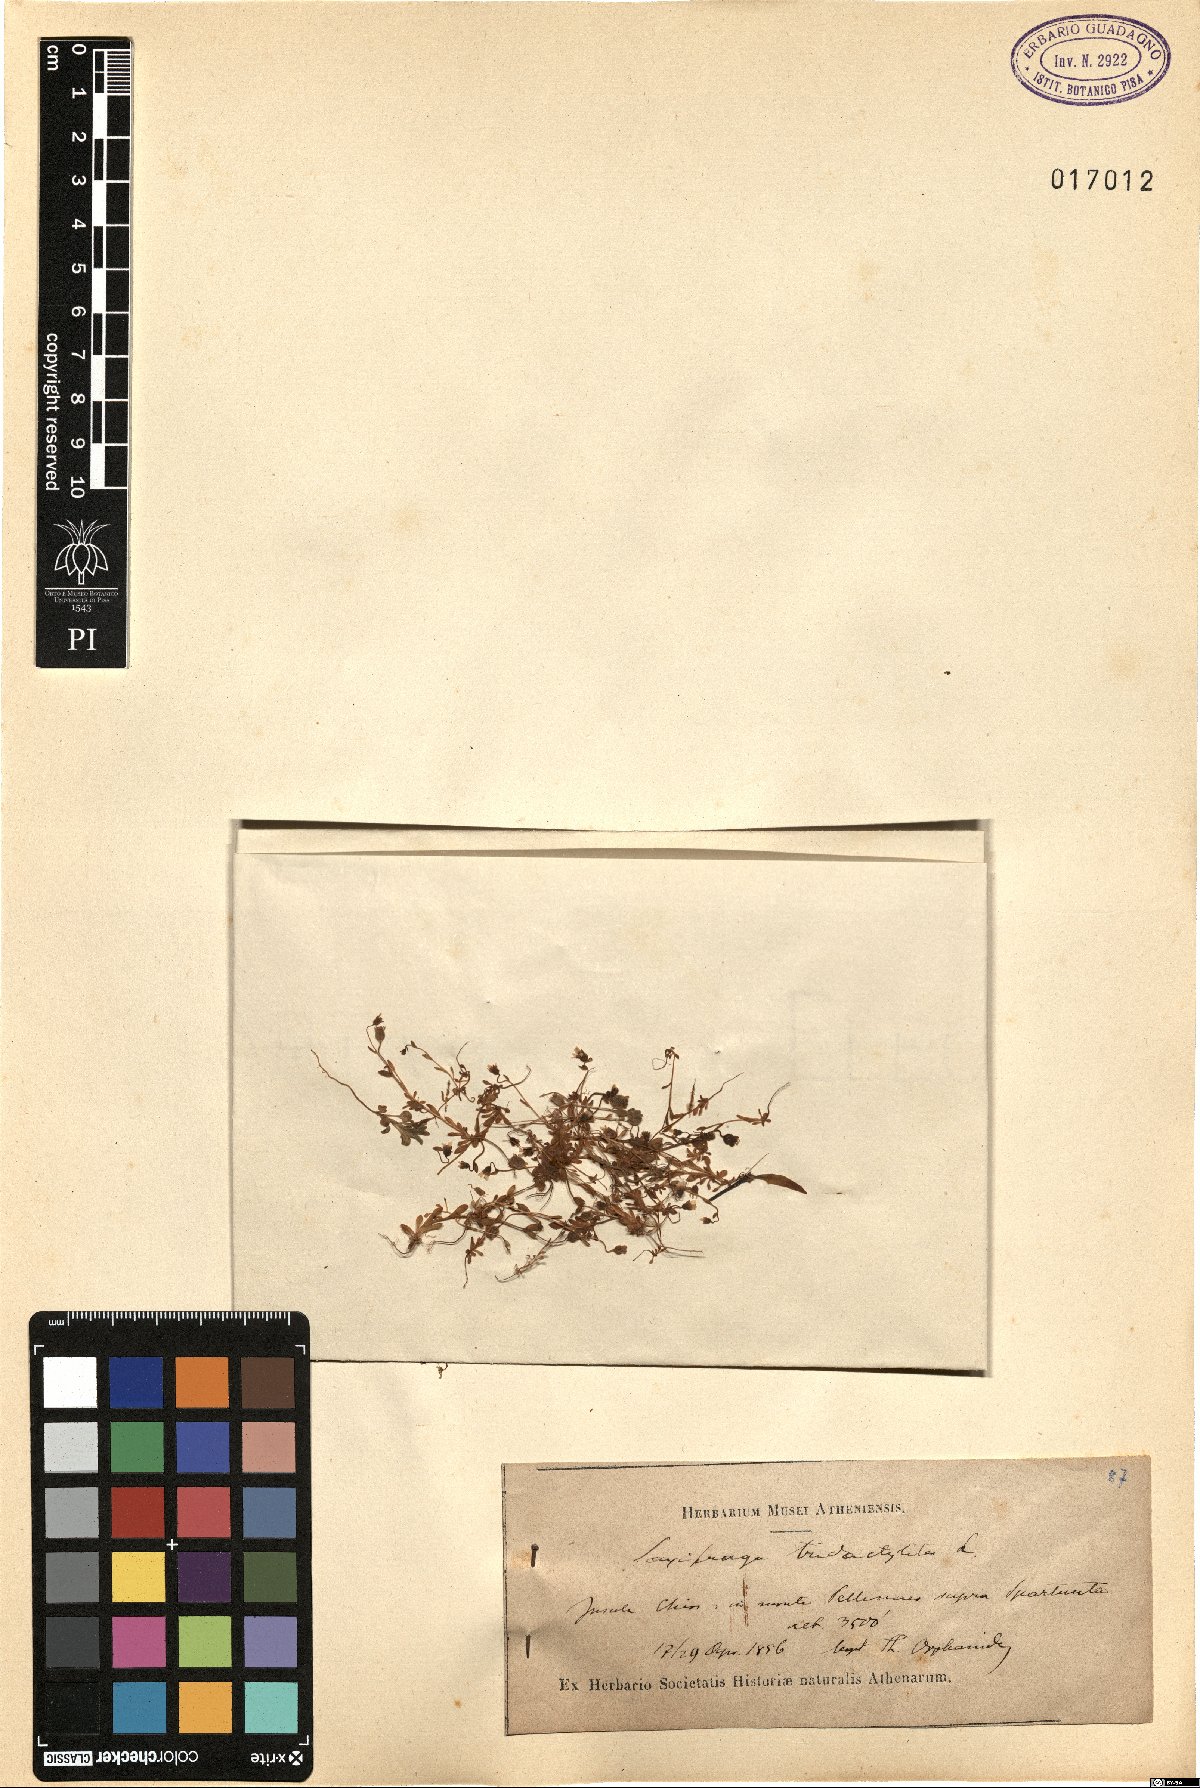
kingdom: Plantae
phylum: Tracheophyta
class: Magnoliopsida
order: Saxifragales
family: Saxifragaceae
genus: Saxifraga
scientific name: Saxifraga tridactylites
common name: Rue-leaved saxifrage
